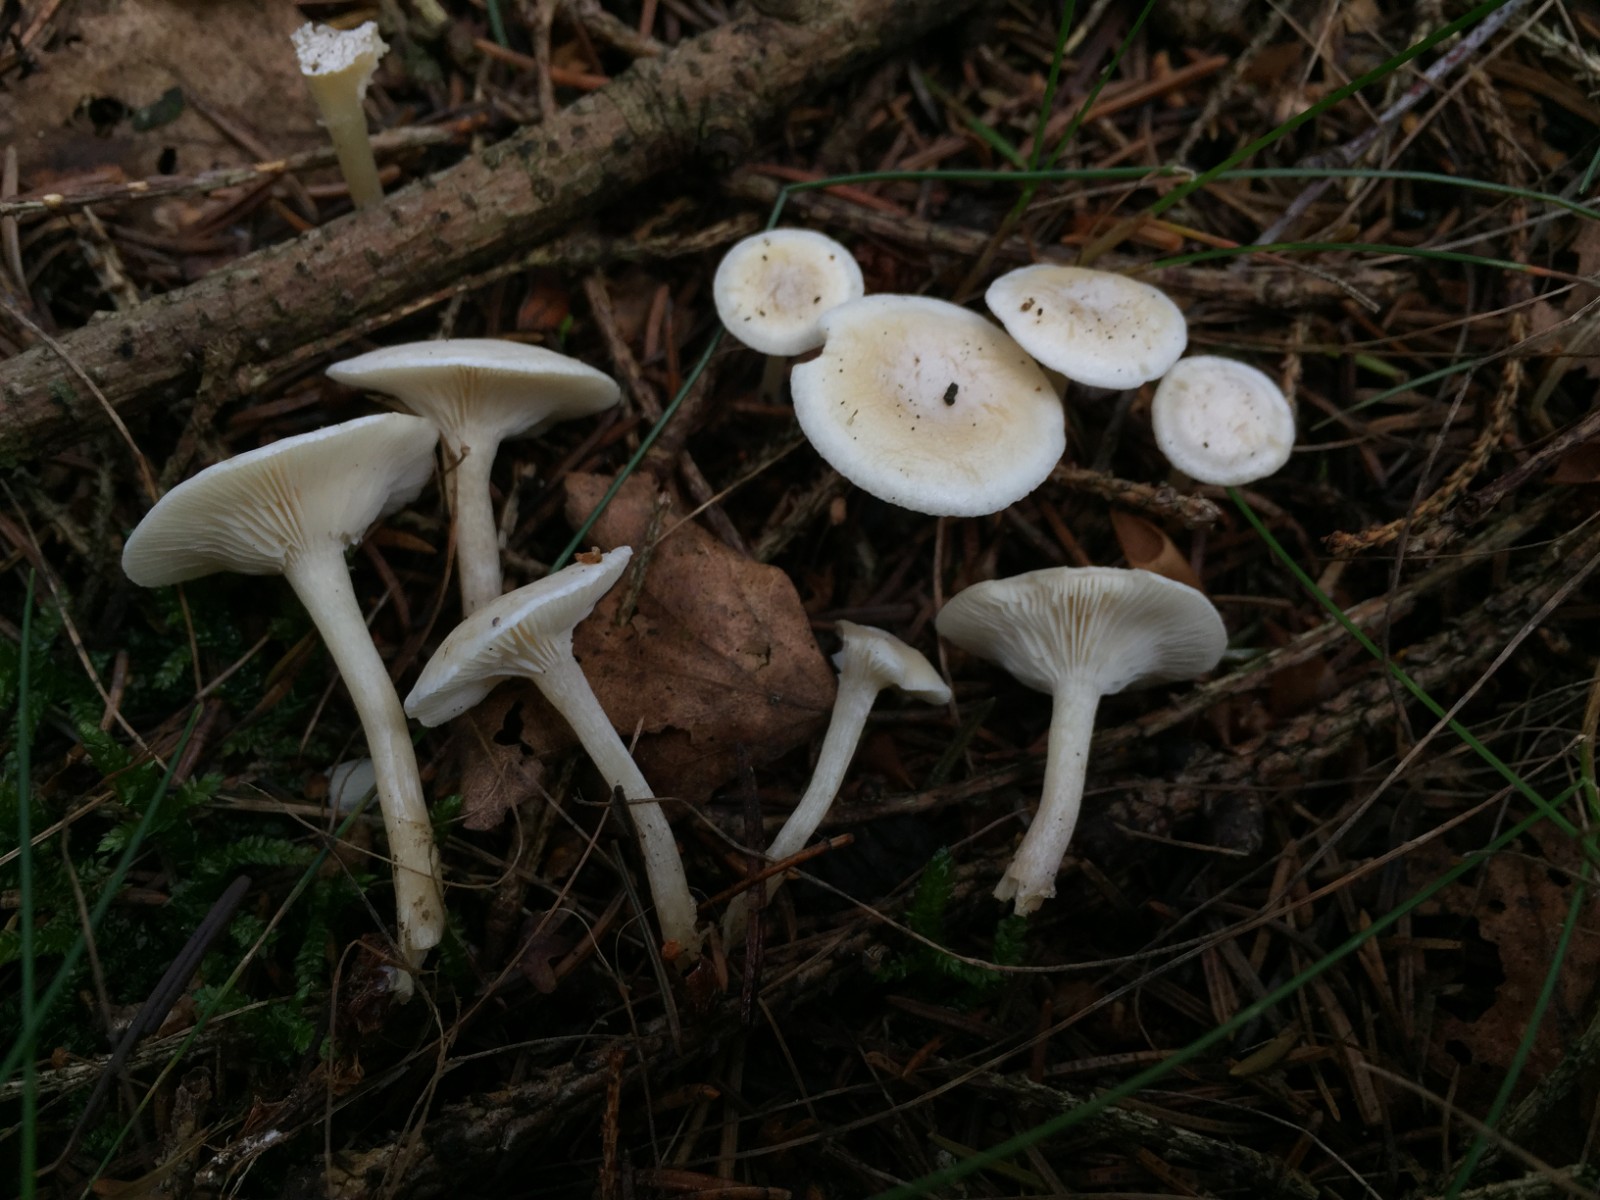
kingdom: Fungi
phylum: Basidiomycota
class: Agaricomycetes
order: Agaricales
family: Tricholomataceae
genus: Leucocybe
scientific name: Leucocybe candicans
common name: kridt-tragthat
